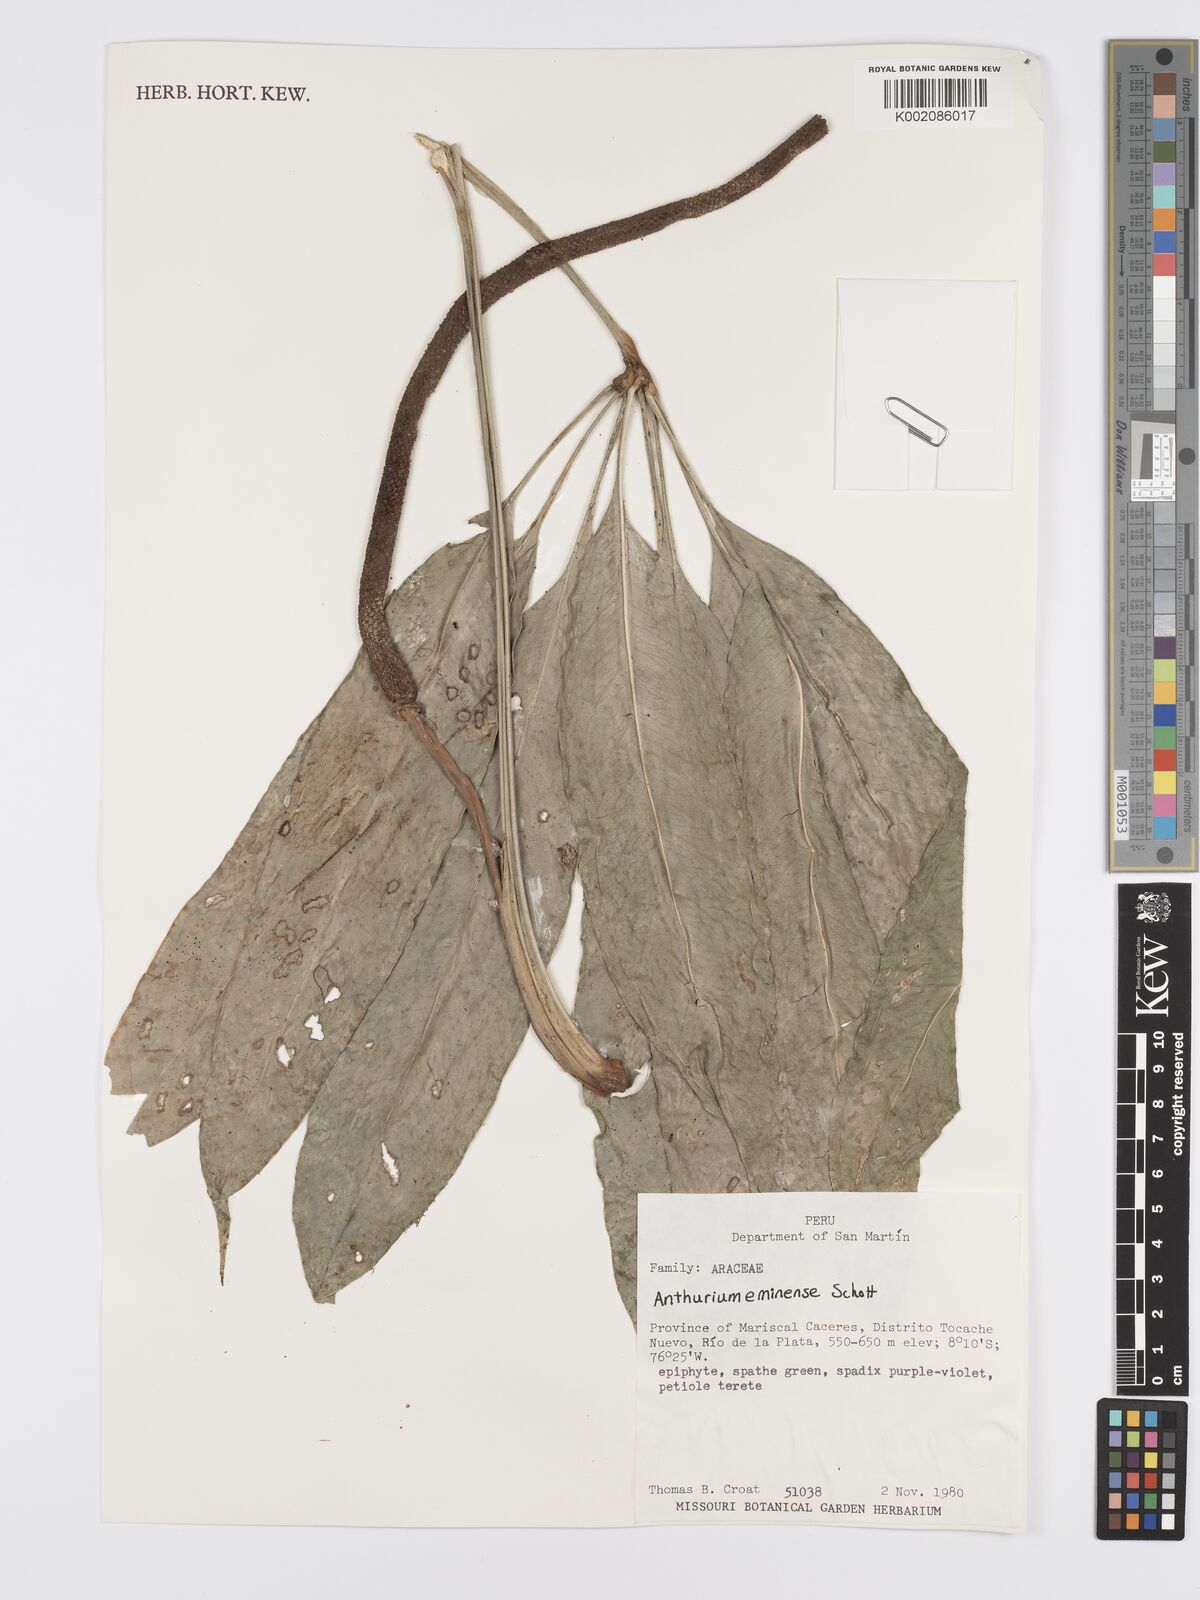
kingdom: Plantae
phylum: Tracheophyta
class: Liliopsida
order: Alismatales
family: Araceae
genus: Anthurium
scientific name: Anthurium eminens
